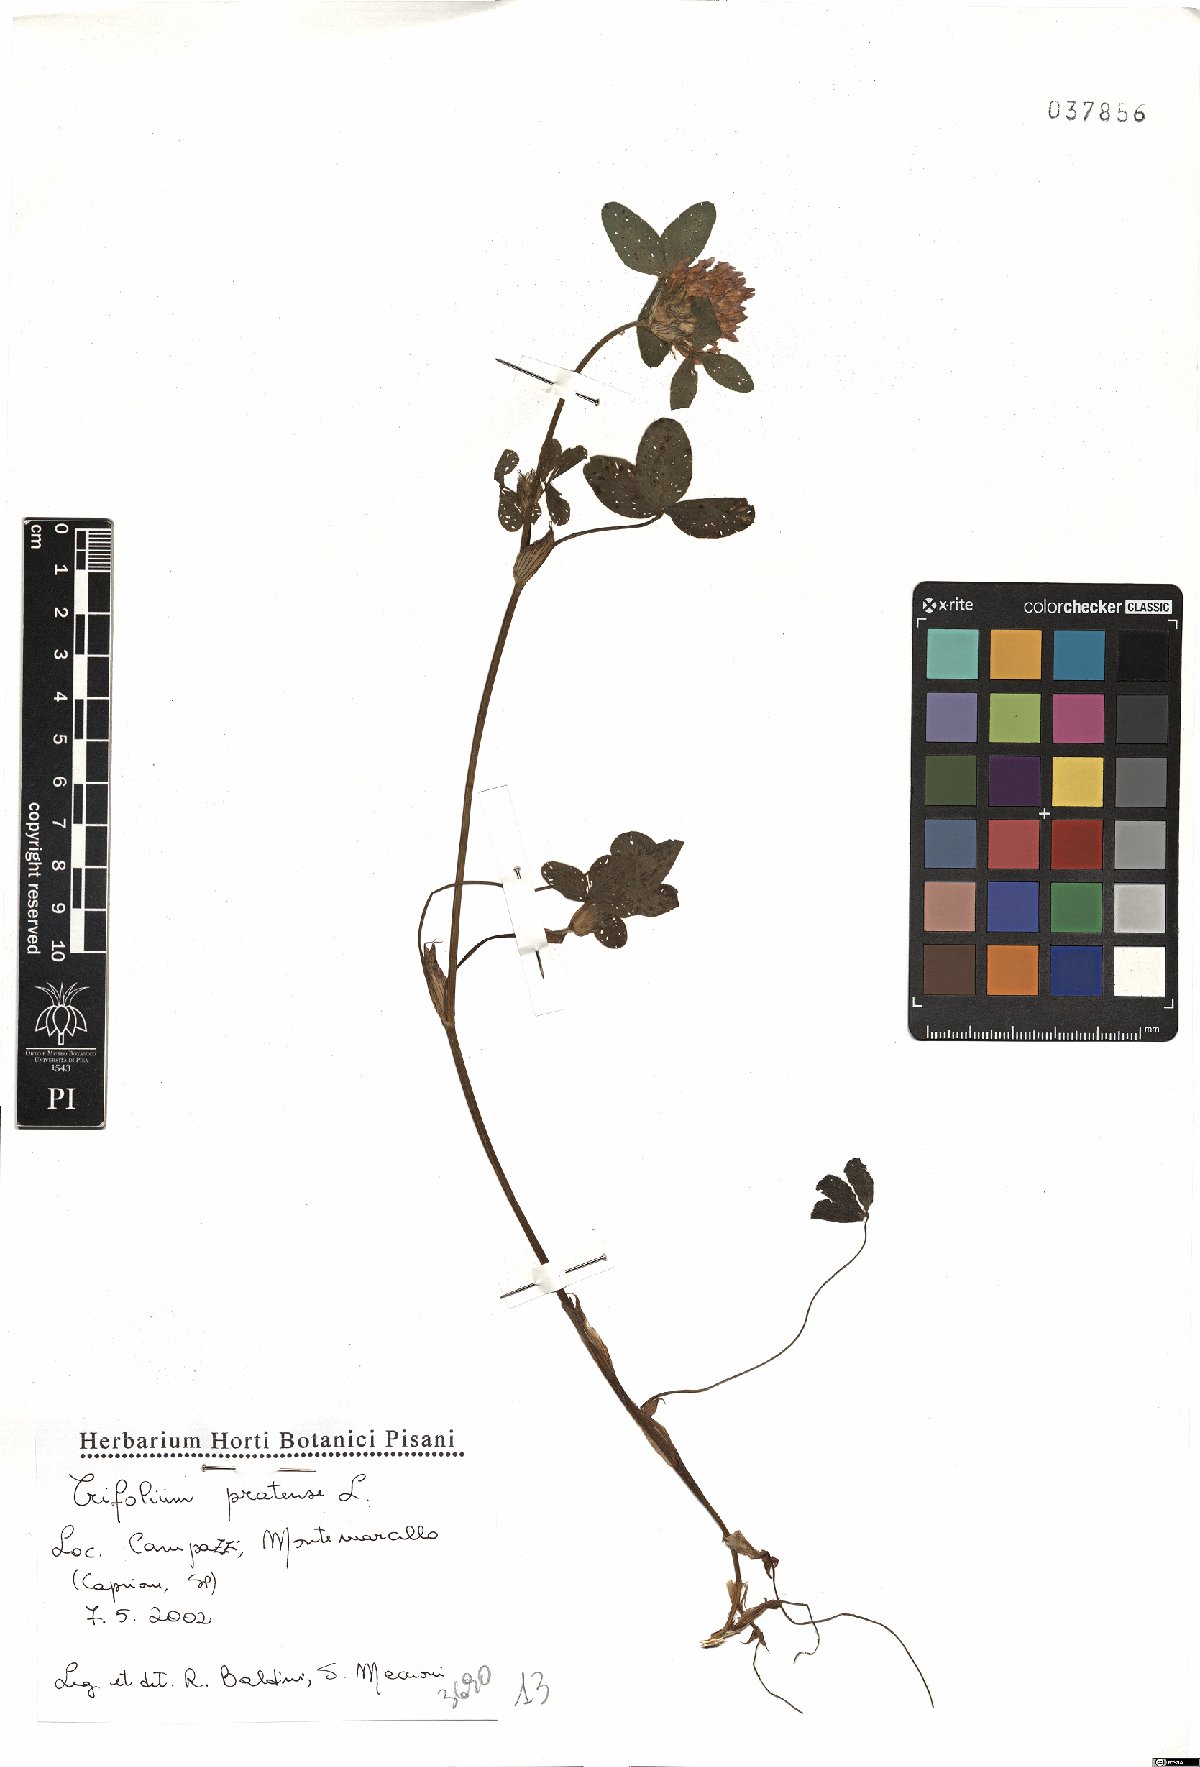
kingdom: Plantae
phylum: Tracheophyta
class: Magnoliopsida
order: Fabales
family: Fabaceae
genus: Trifolium
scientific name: Trifolium pratense
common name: Red clover
